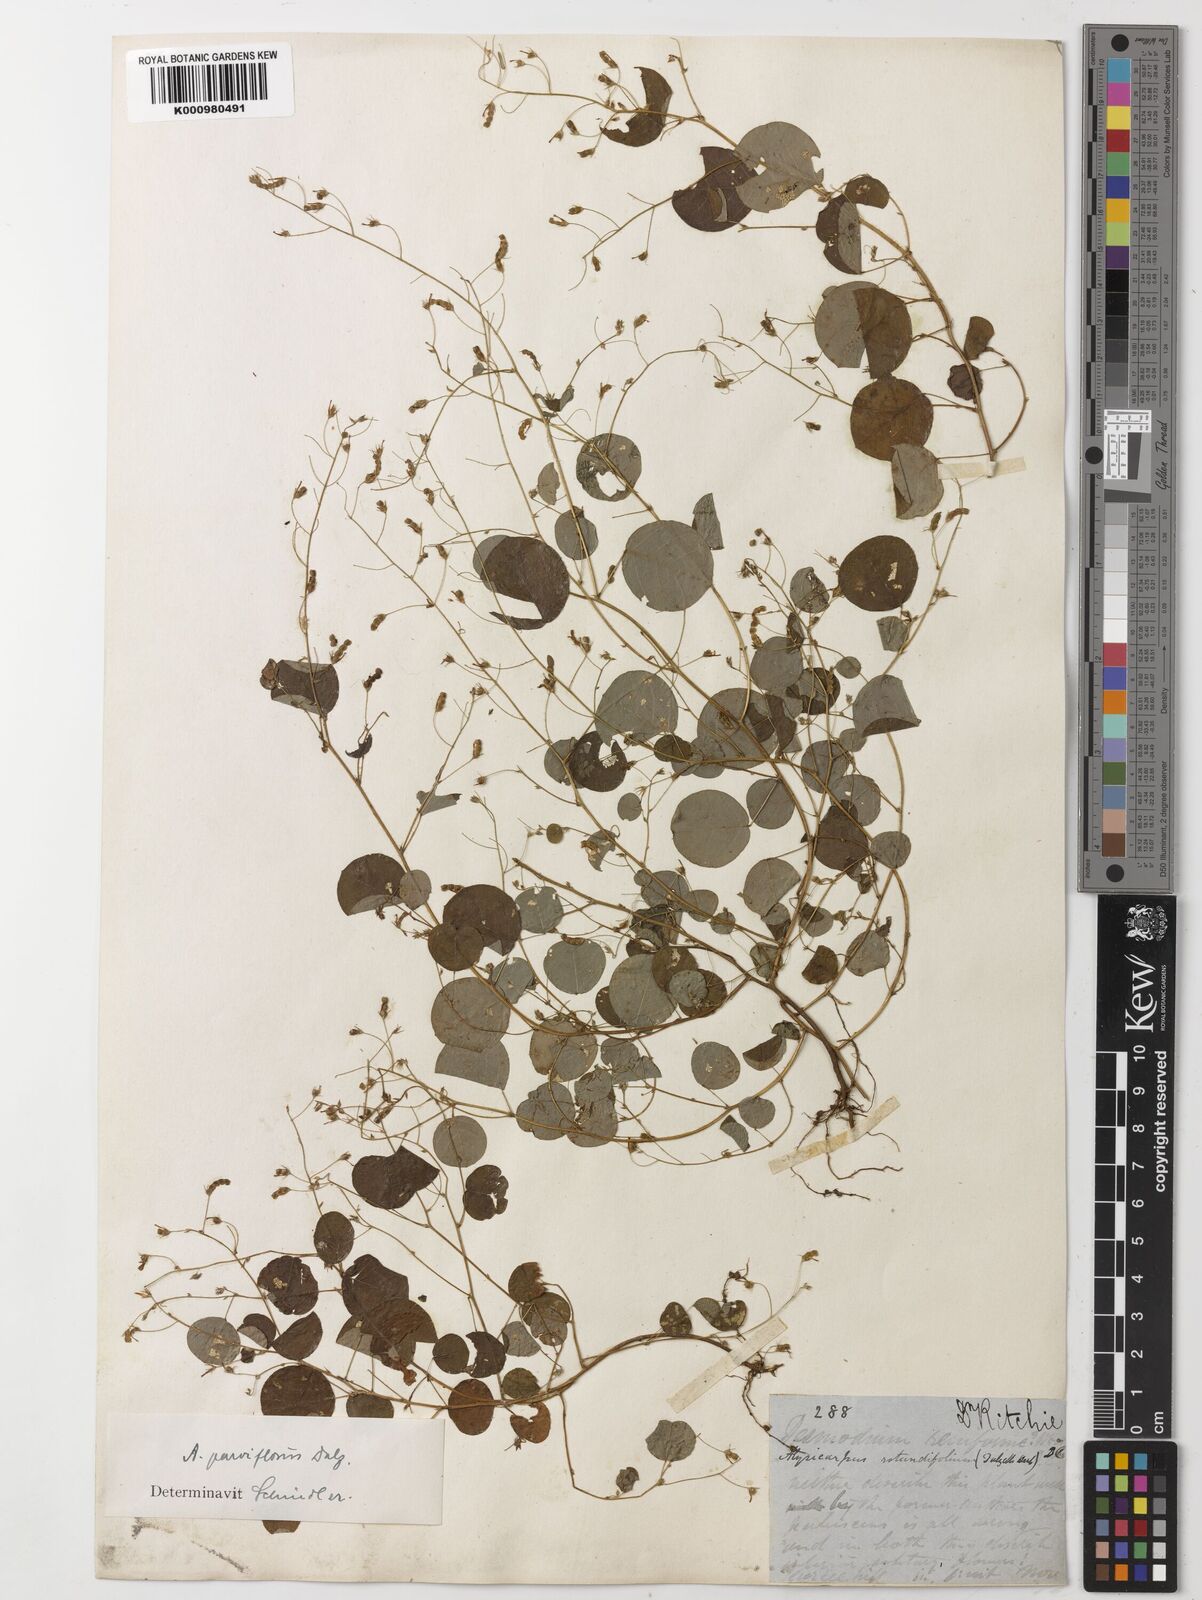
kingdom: Plantae
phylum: Tracheophyta
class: Magnoliopsida
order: Fabales
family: Fabaceae
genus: Alysicarpus
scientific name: Alysicarpus parviflorus
